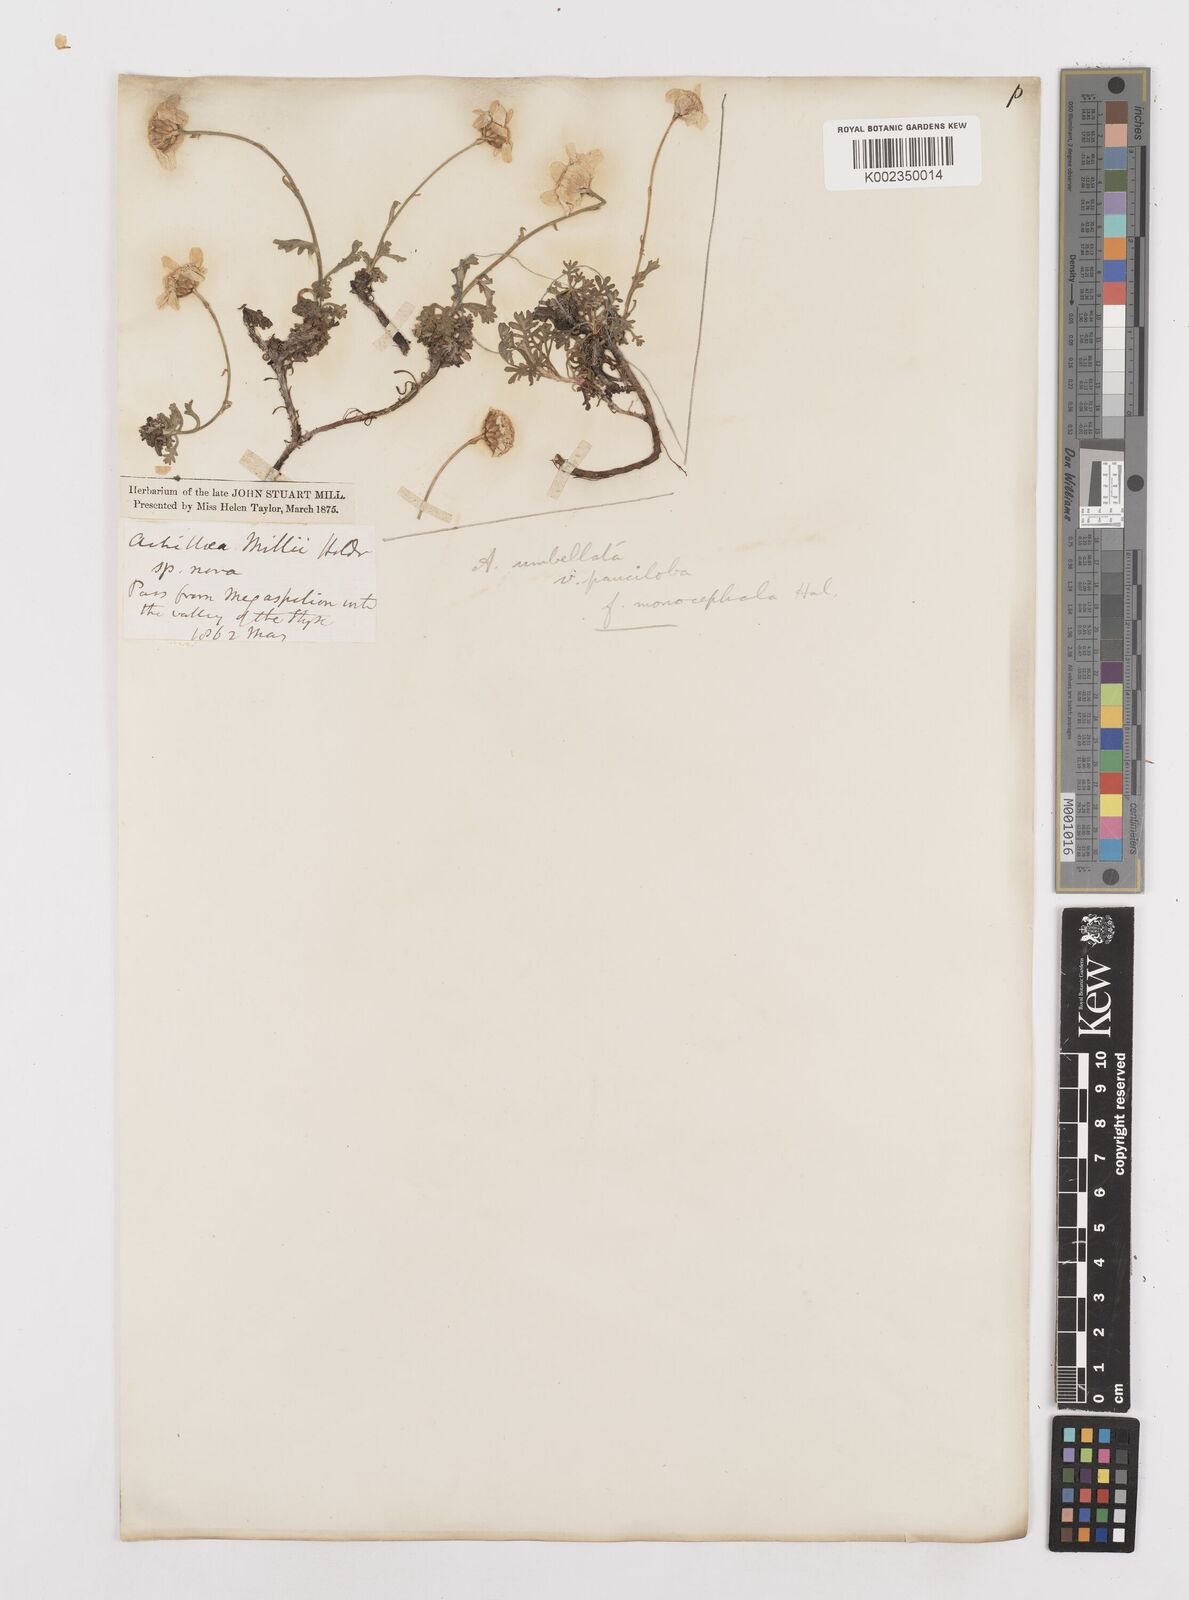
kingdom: Plantae
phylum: Tracheophyta
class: Magnoliopsida
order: Asterales
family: Asteraceae
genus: Achillea
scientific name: Achillea umbellata
